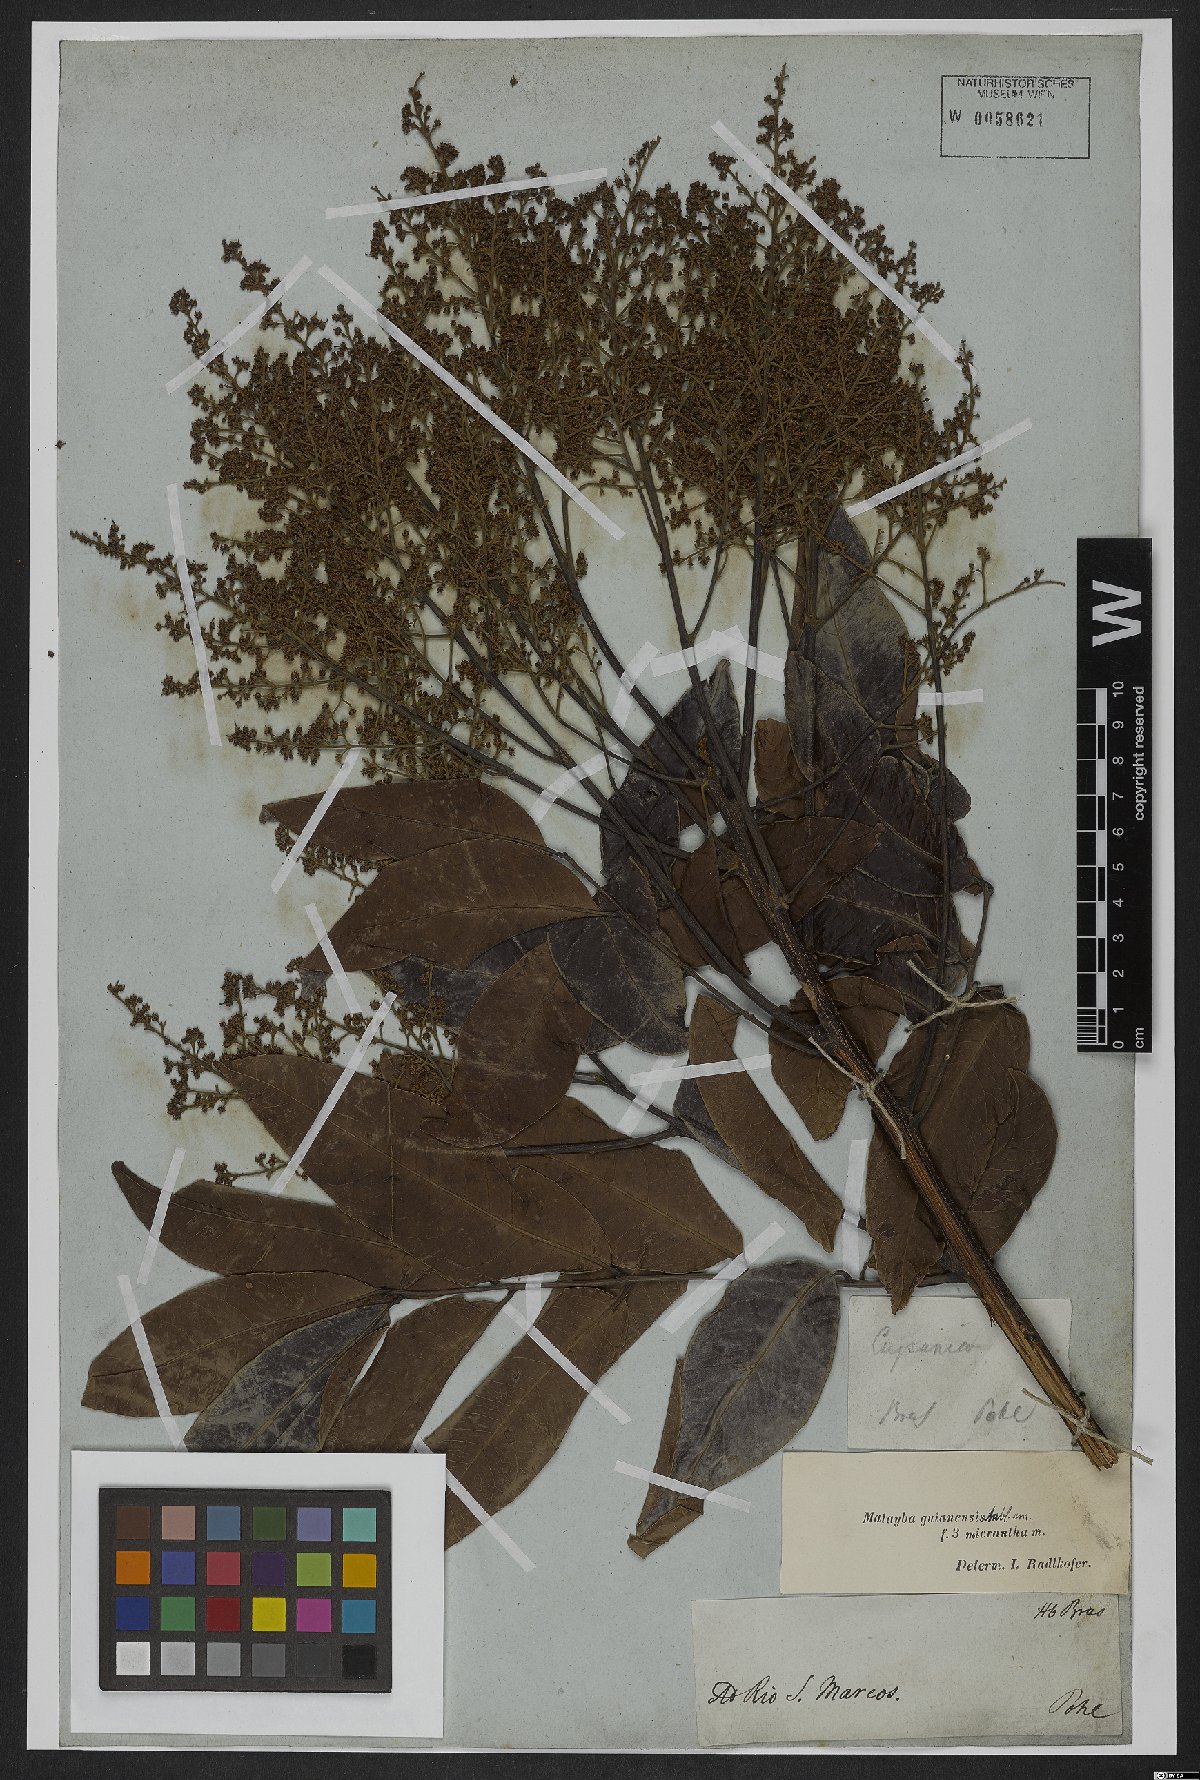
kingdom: Plantae
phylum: Tracheophyta
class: Magnoliopsida
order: Sapindales
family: Sapindaceae
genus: Matayba
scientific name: Matayba guianensis
